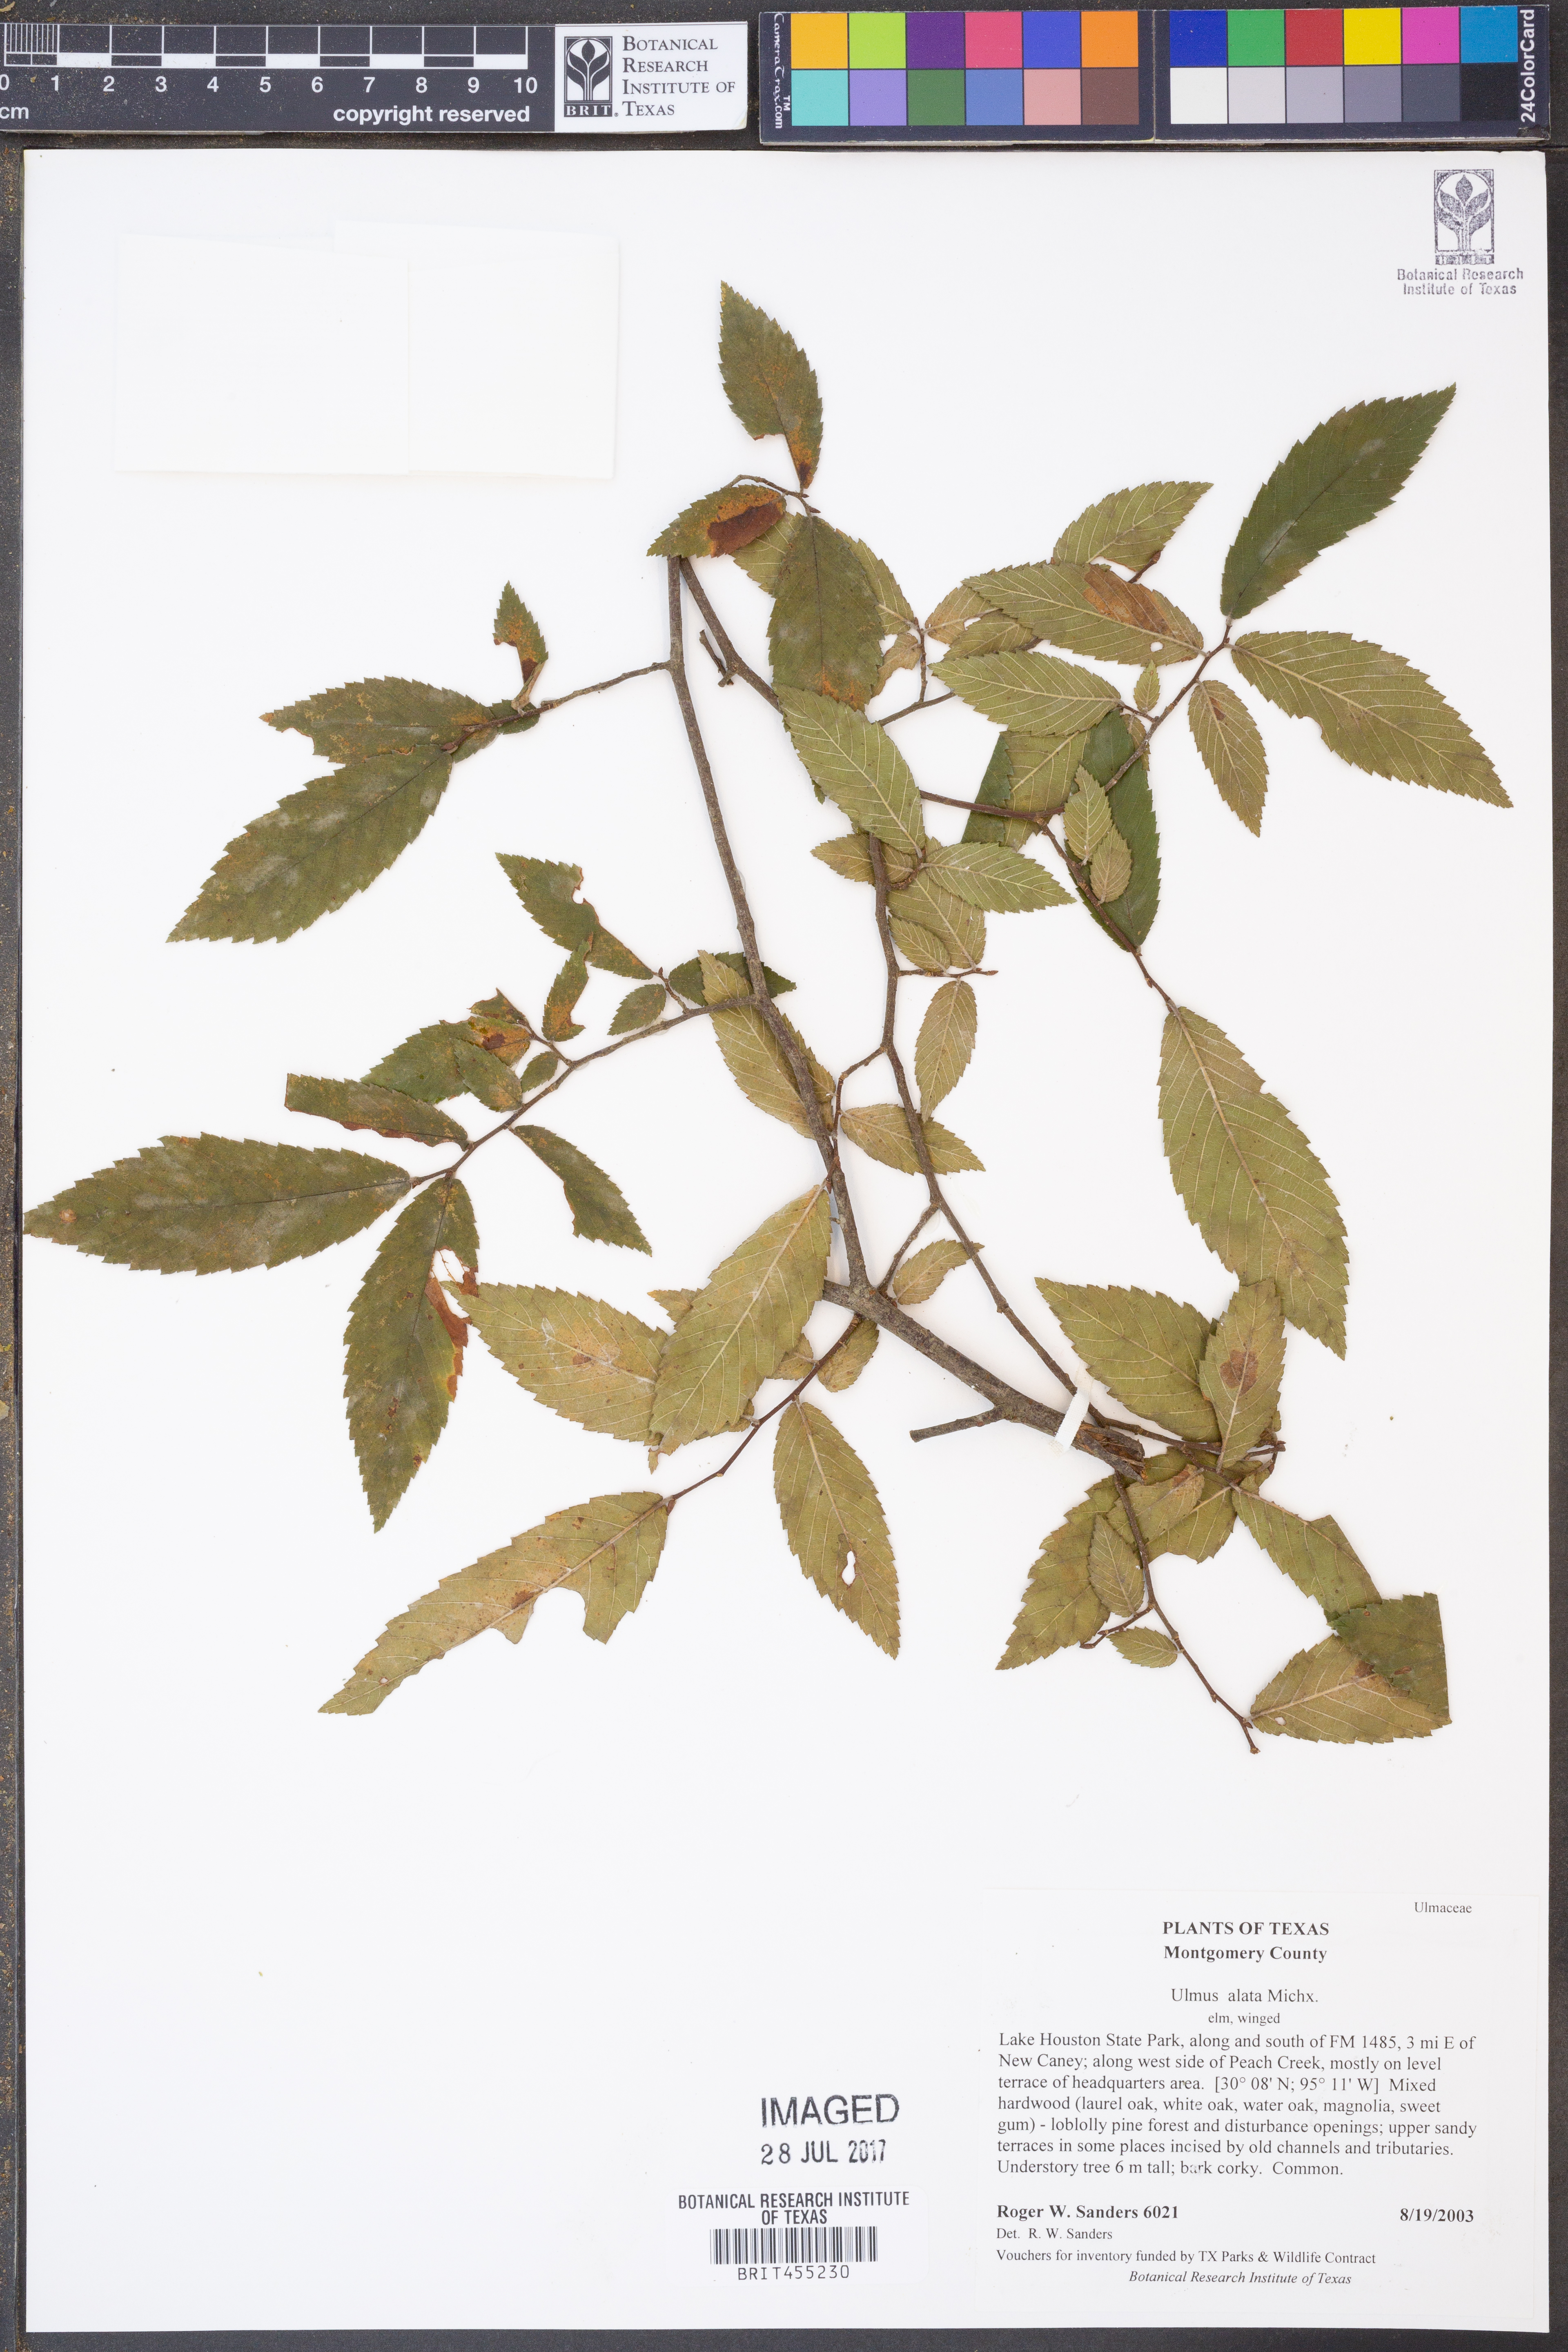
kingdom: Plantae
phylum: Tracheophyta
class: Magnoliopsida
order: Rosales
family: Ulmaceae
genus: Ulmus
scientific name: Ulmus alata
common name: Winged elm
